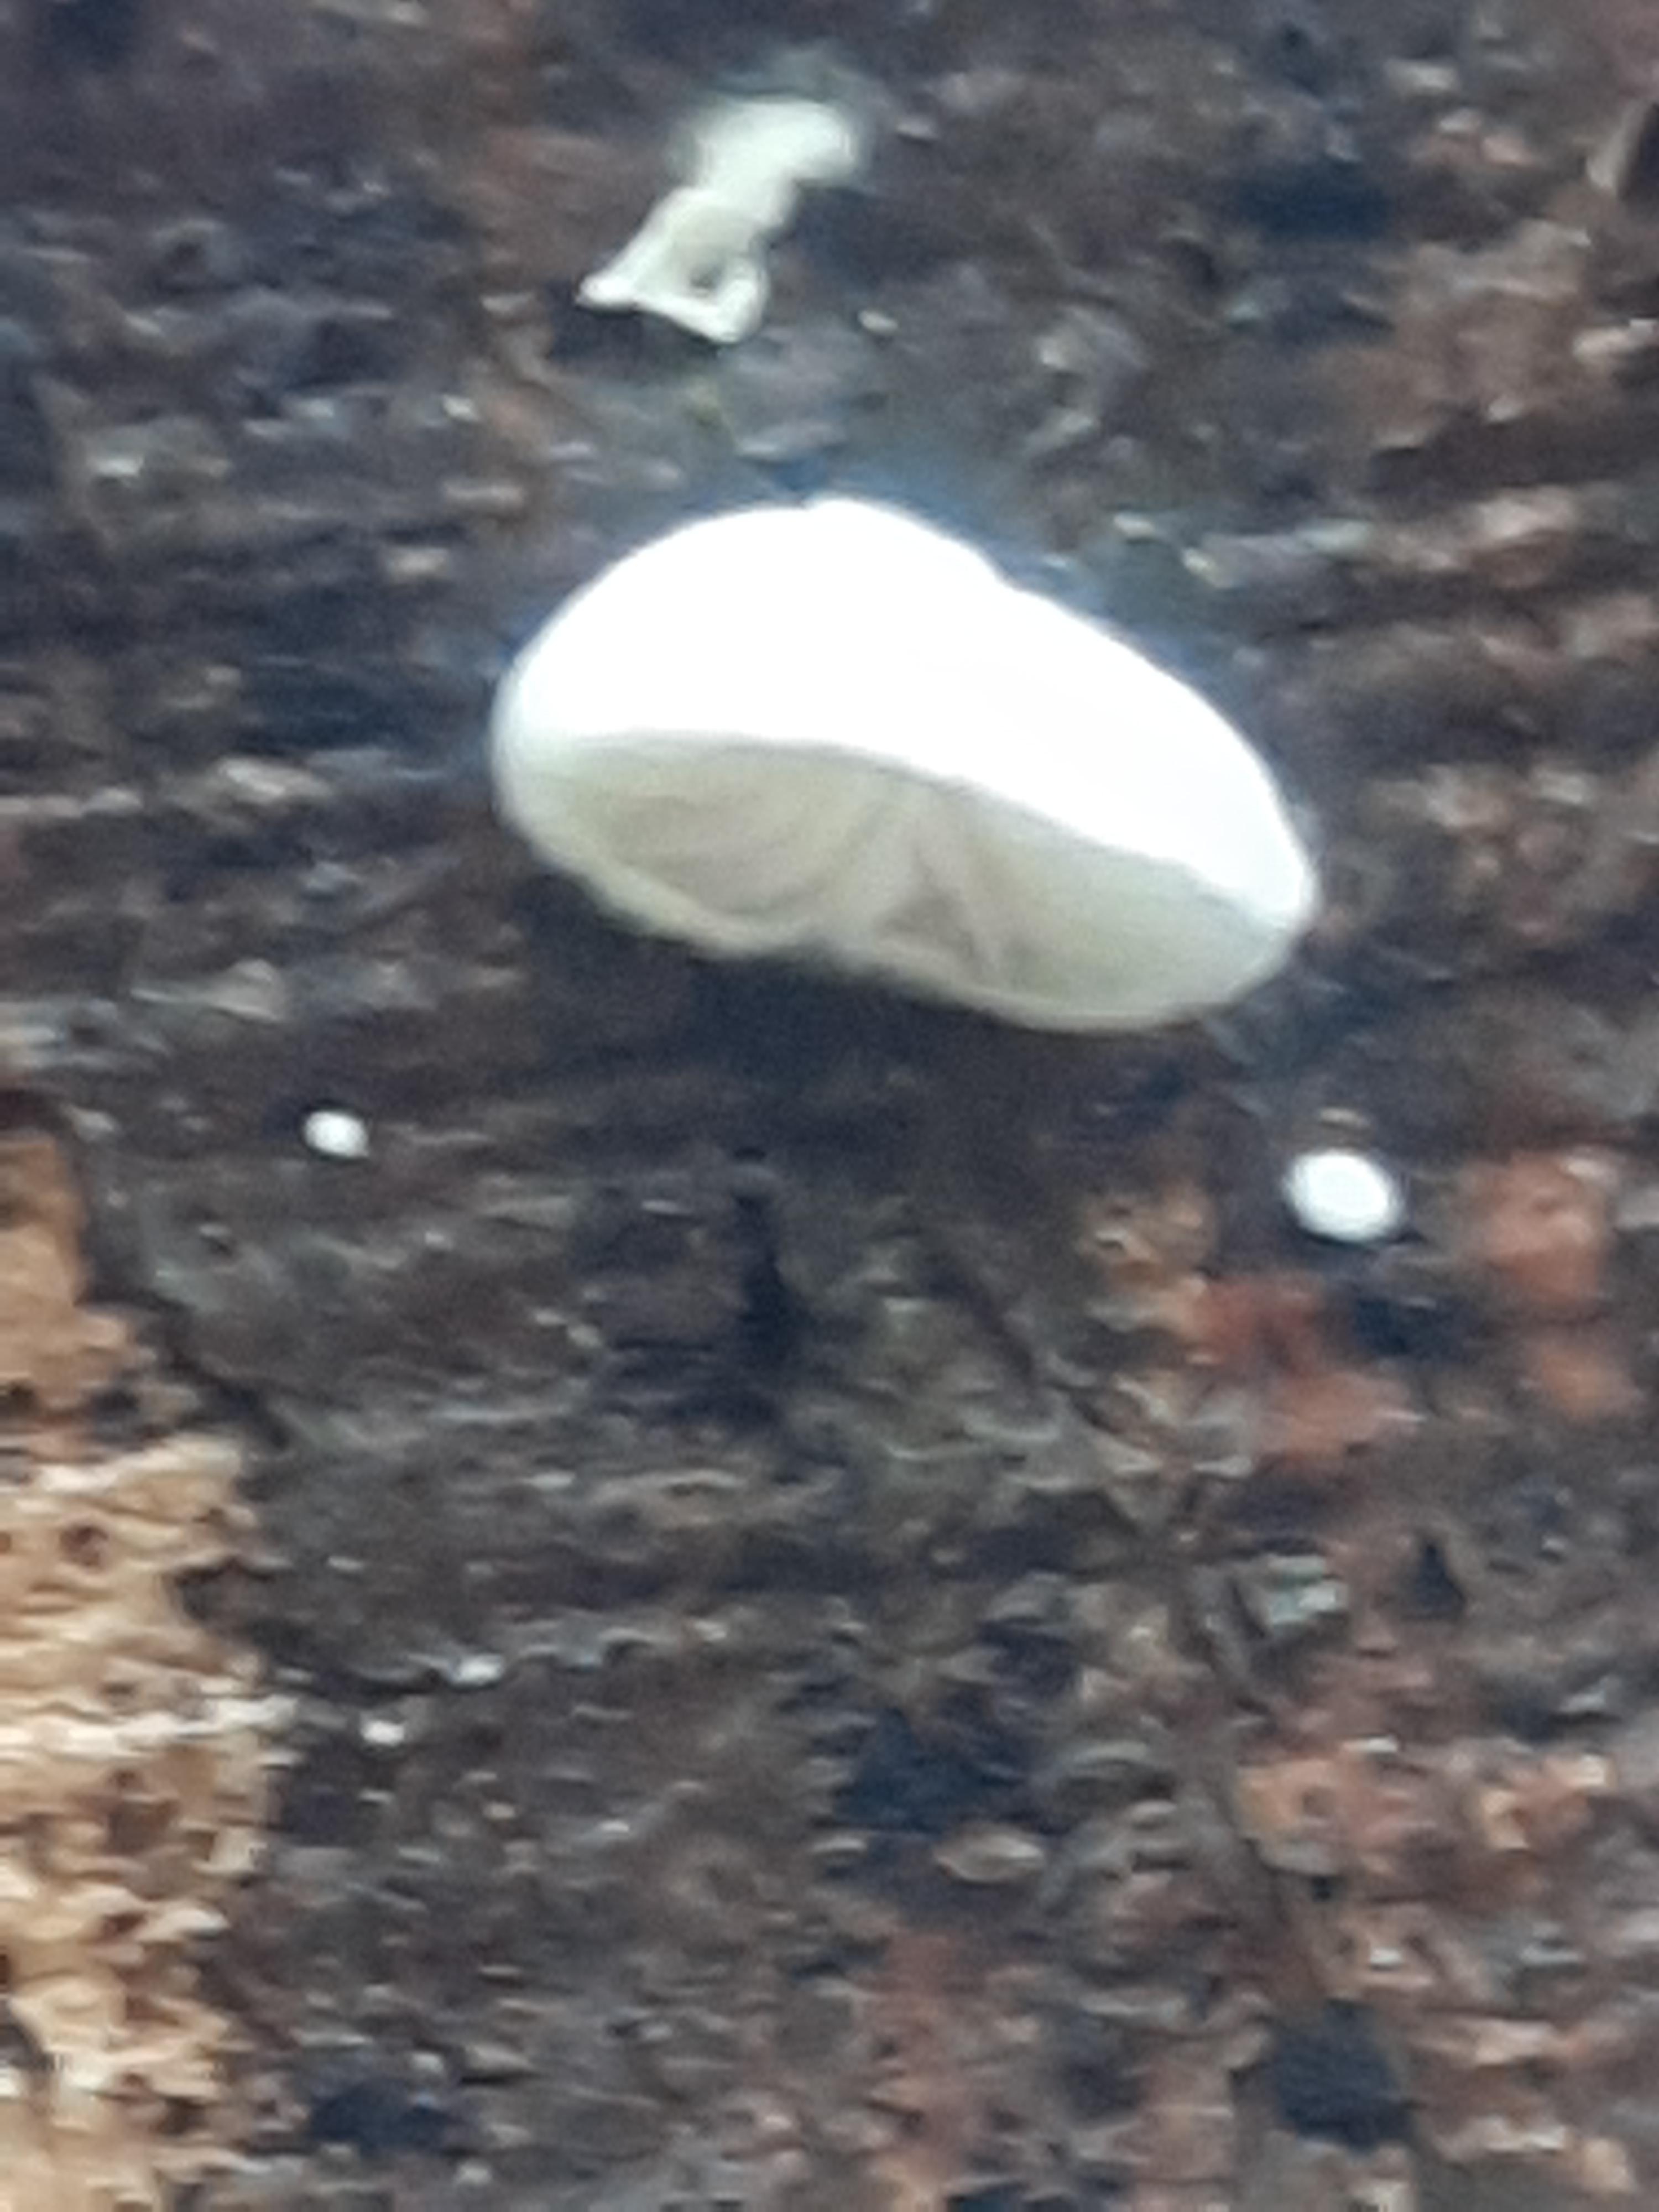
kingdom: Fungi
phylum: Basidiomycota
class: Agaricomycetes
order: Agaricales
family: Crepidotaceae
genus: Crepidotus
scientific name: Crepidotus
